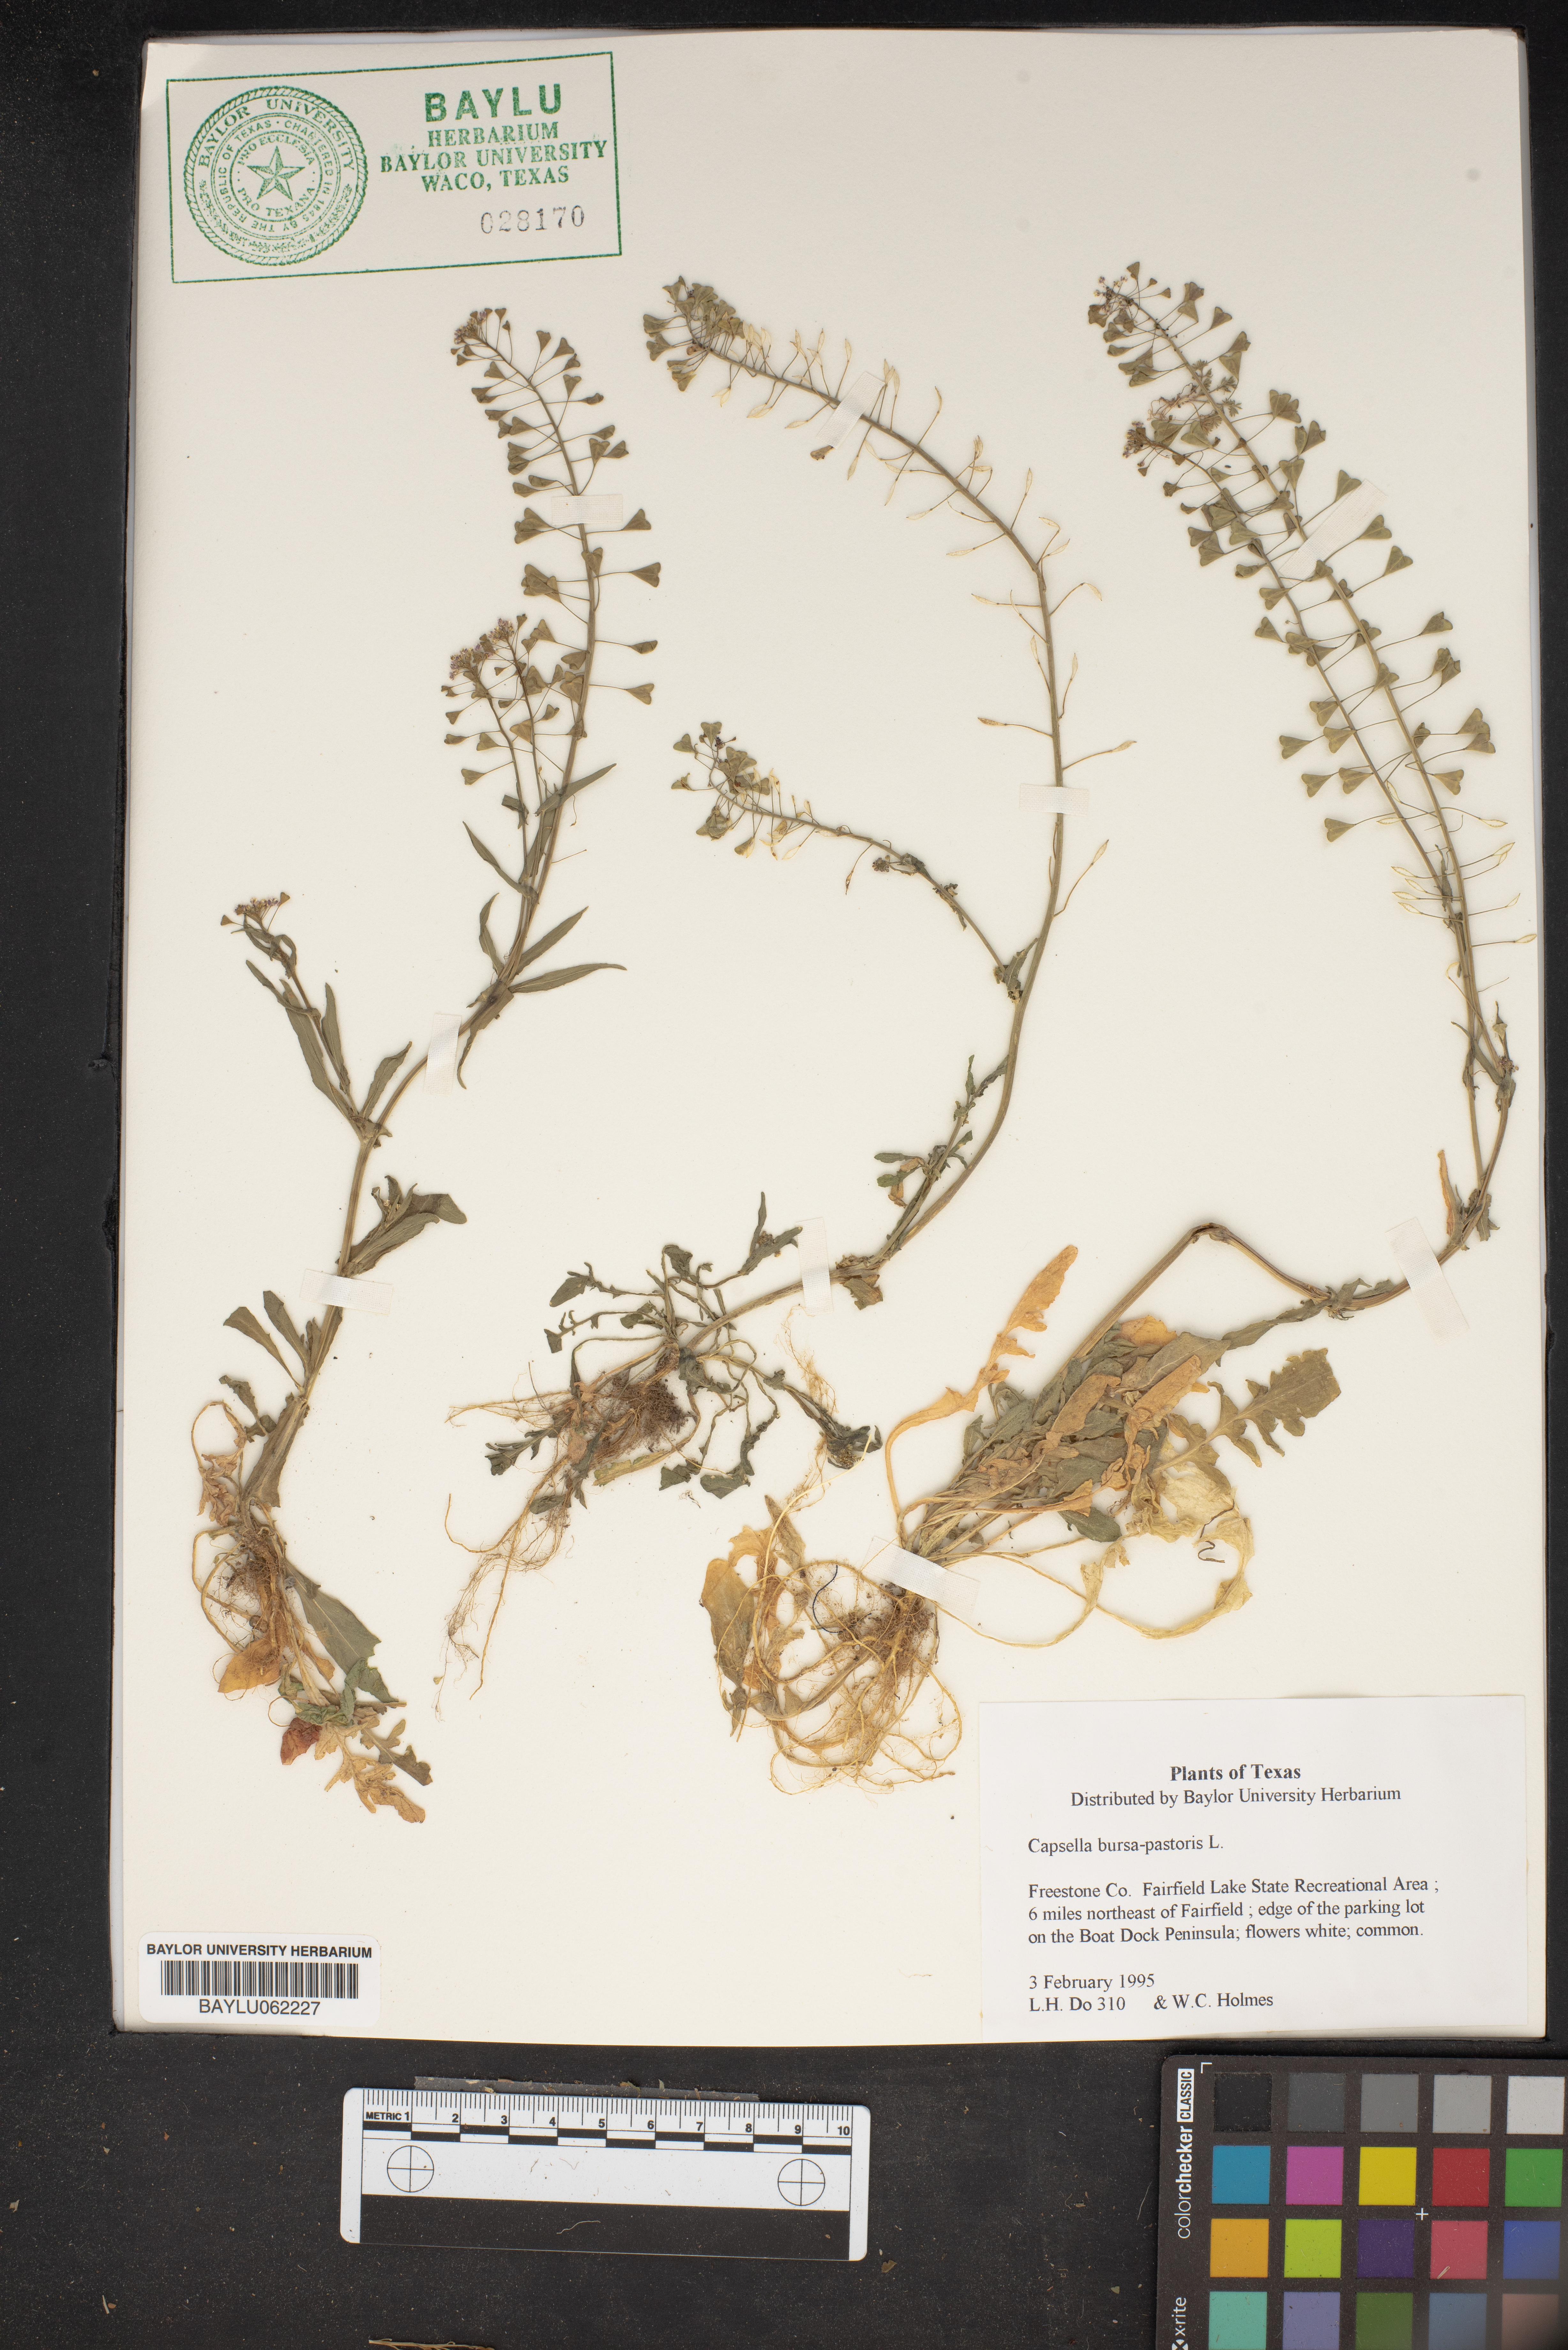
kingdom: Plantae
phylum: Tracheophyta
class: Magnoliopsida
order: Brassicales
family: Brassicaceae
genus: Capsella
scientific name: Capsella bursa-pastoris
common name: Shepherd's purse
